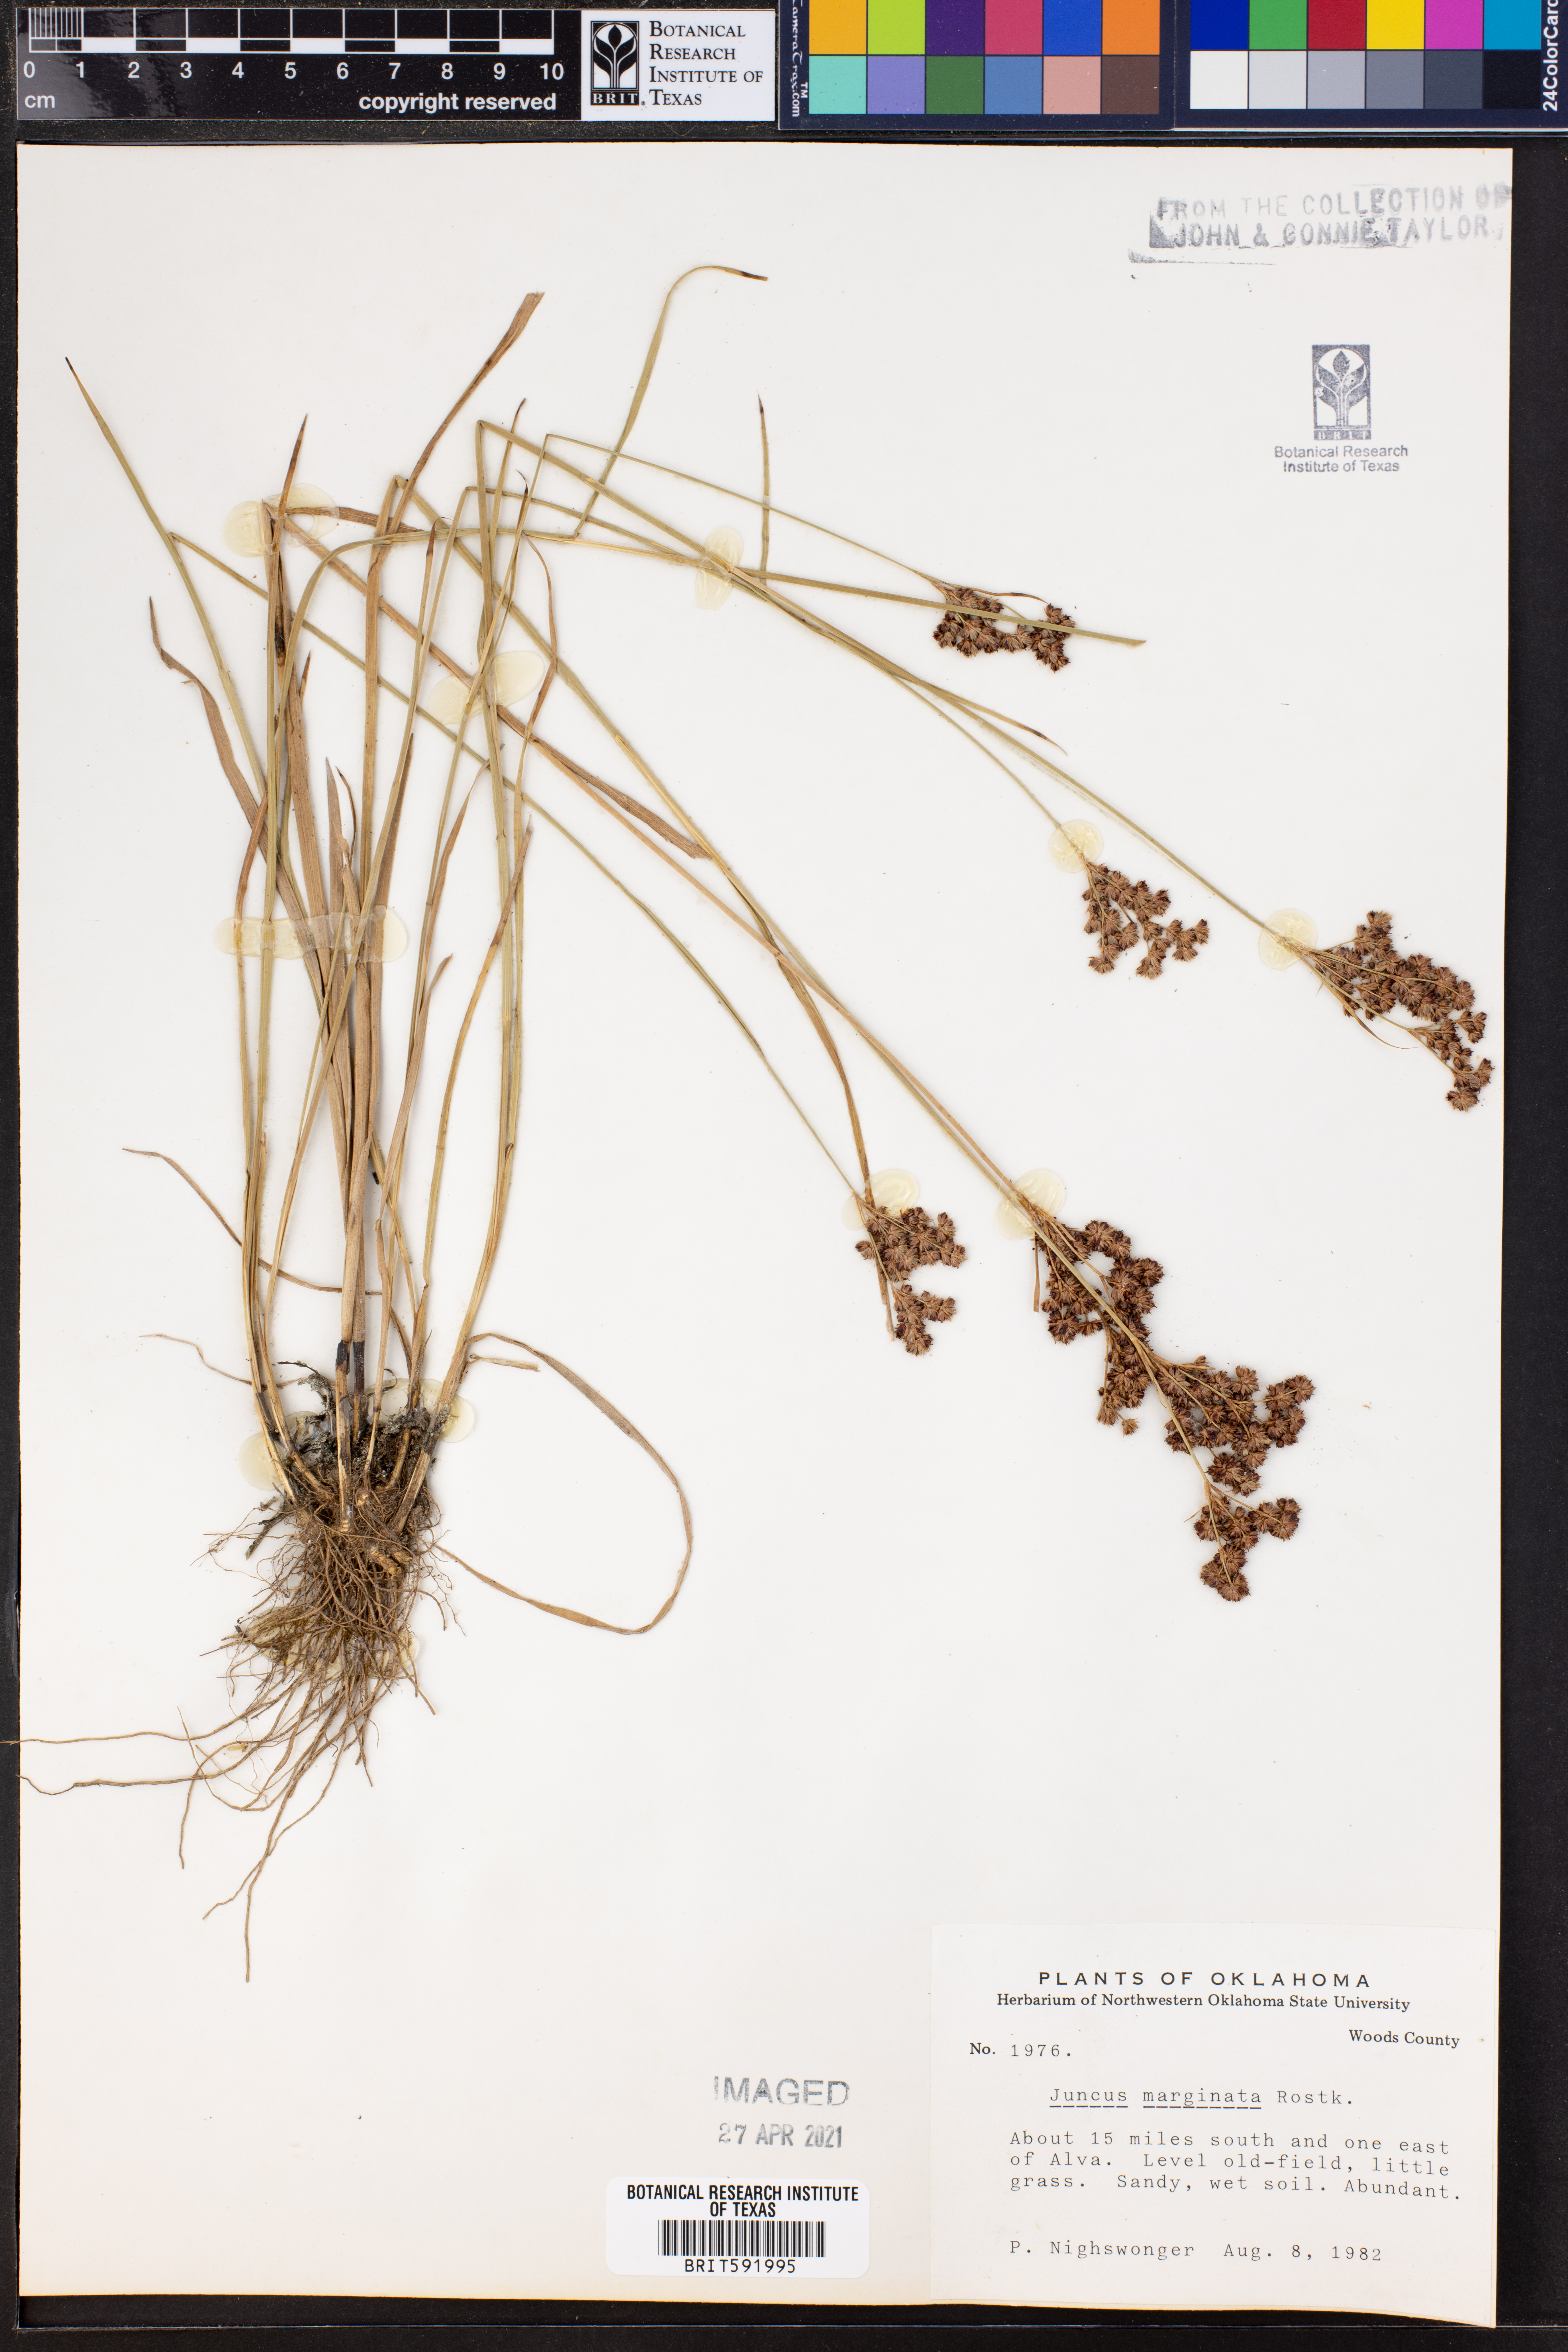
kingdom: Plantae
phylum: Tracheophyta
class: Liliopsida
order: Poales
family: Juncaceae
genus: Juncus
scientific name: Juncus marginatus
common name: Grass-leaf rush
